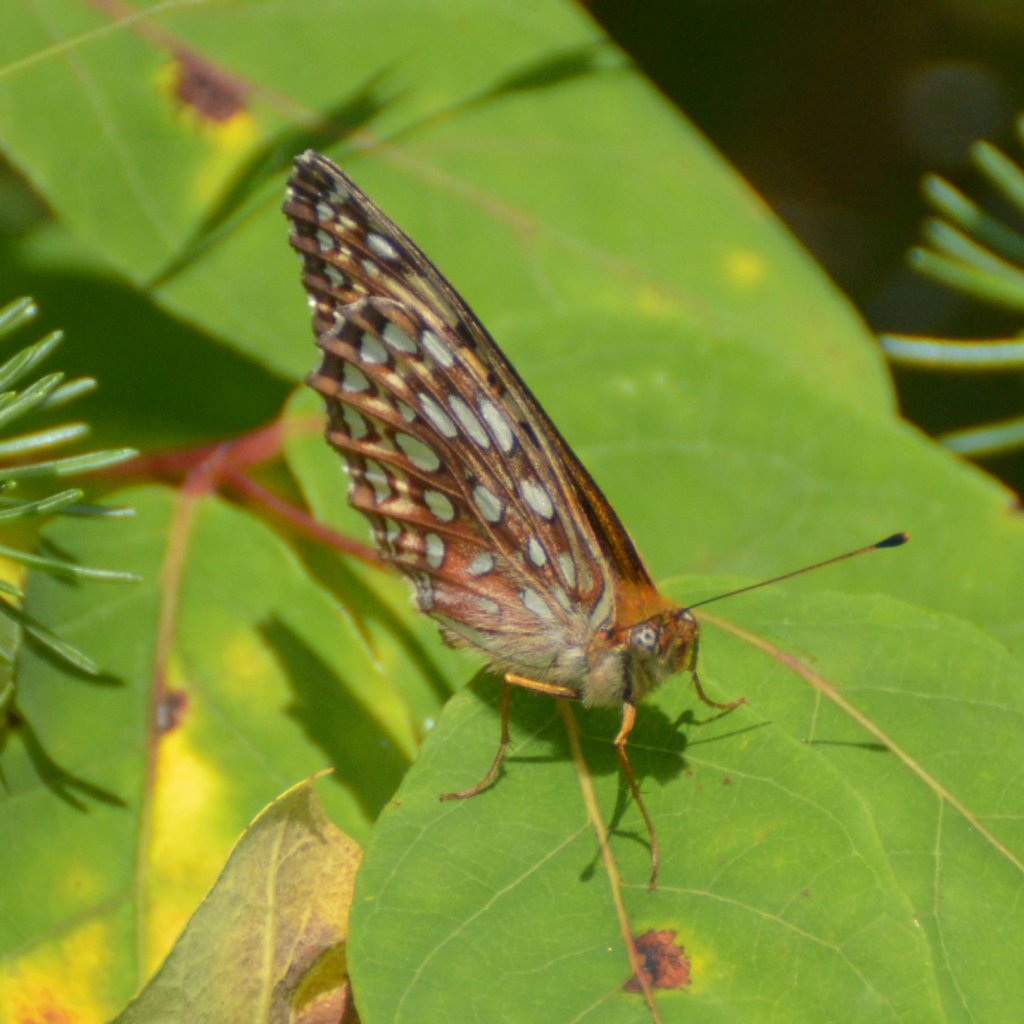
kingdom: Animalia
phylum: Arthropoda
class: Insecta
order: Lepidoptera
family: Nymphalidae
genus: Speyeria
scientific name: Speyeria atlantis
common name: Atlantis Fritillary
